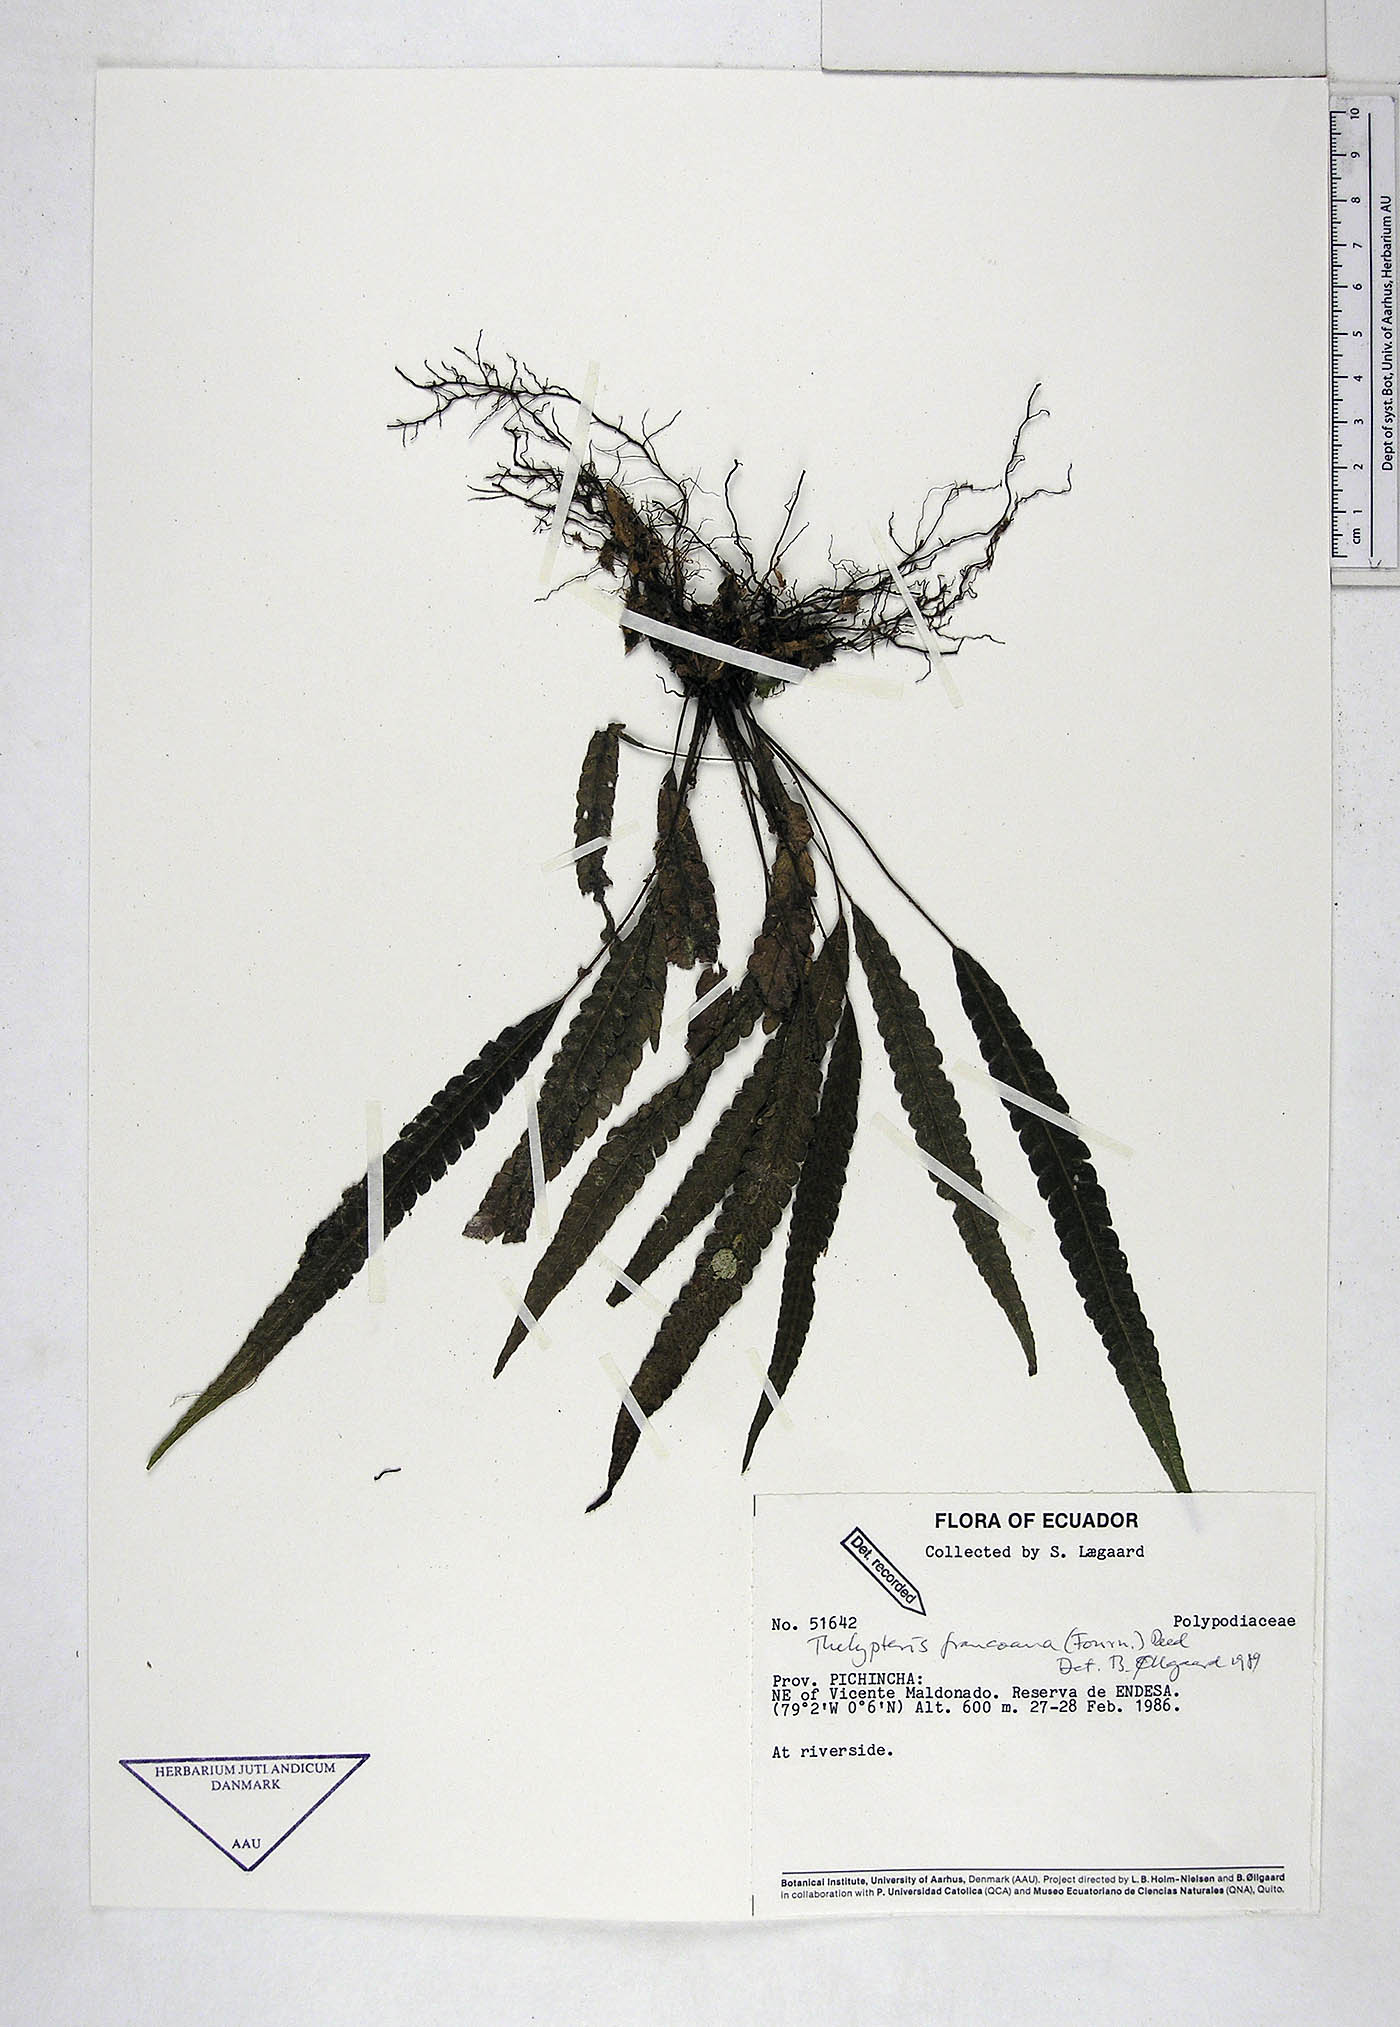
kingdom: Plantae
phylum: Tracheophyta
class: Polypodiopsida
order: Polypodiales
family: Thelypteridaceae
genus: Goniopteris
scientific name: Goniopteris francoana
